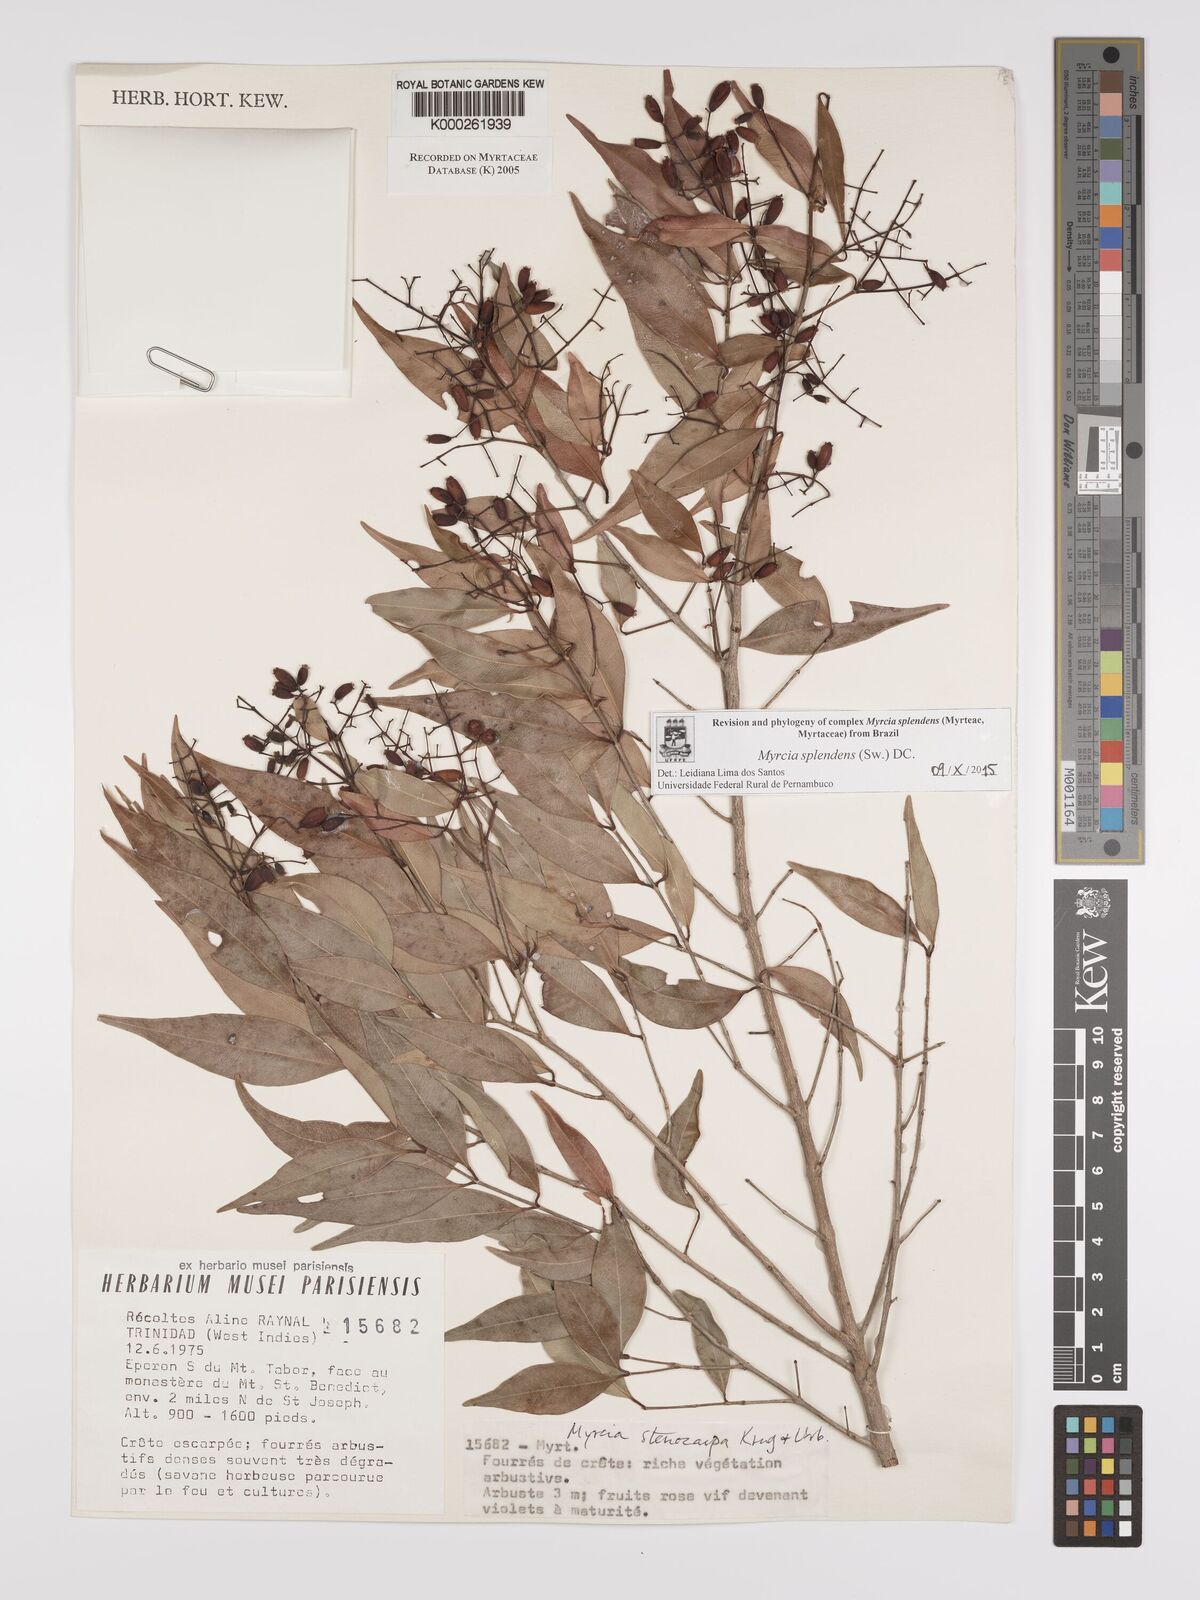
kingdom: Plantae
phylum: Tracheophyta
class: Magnoliopsida
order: Myrtales
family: Myrtaceae
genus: Myrcia
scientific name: Myrcia stenocarpa
